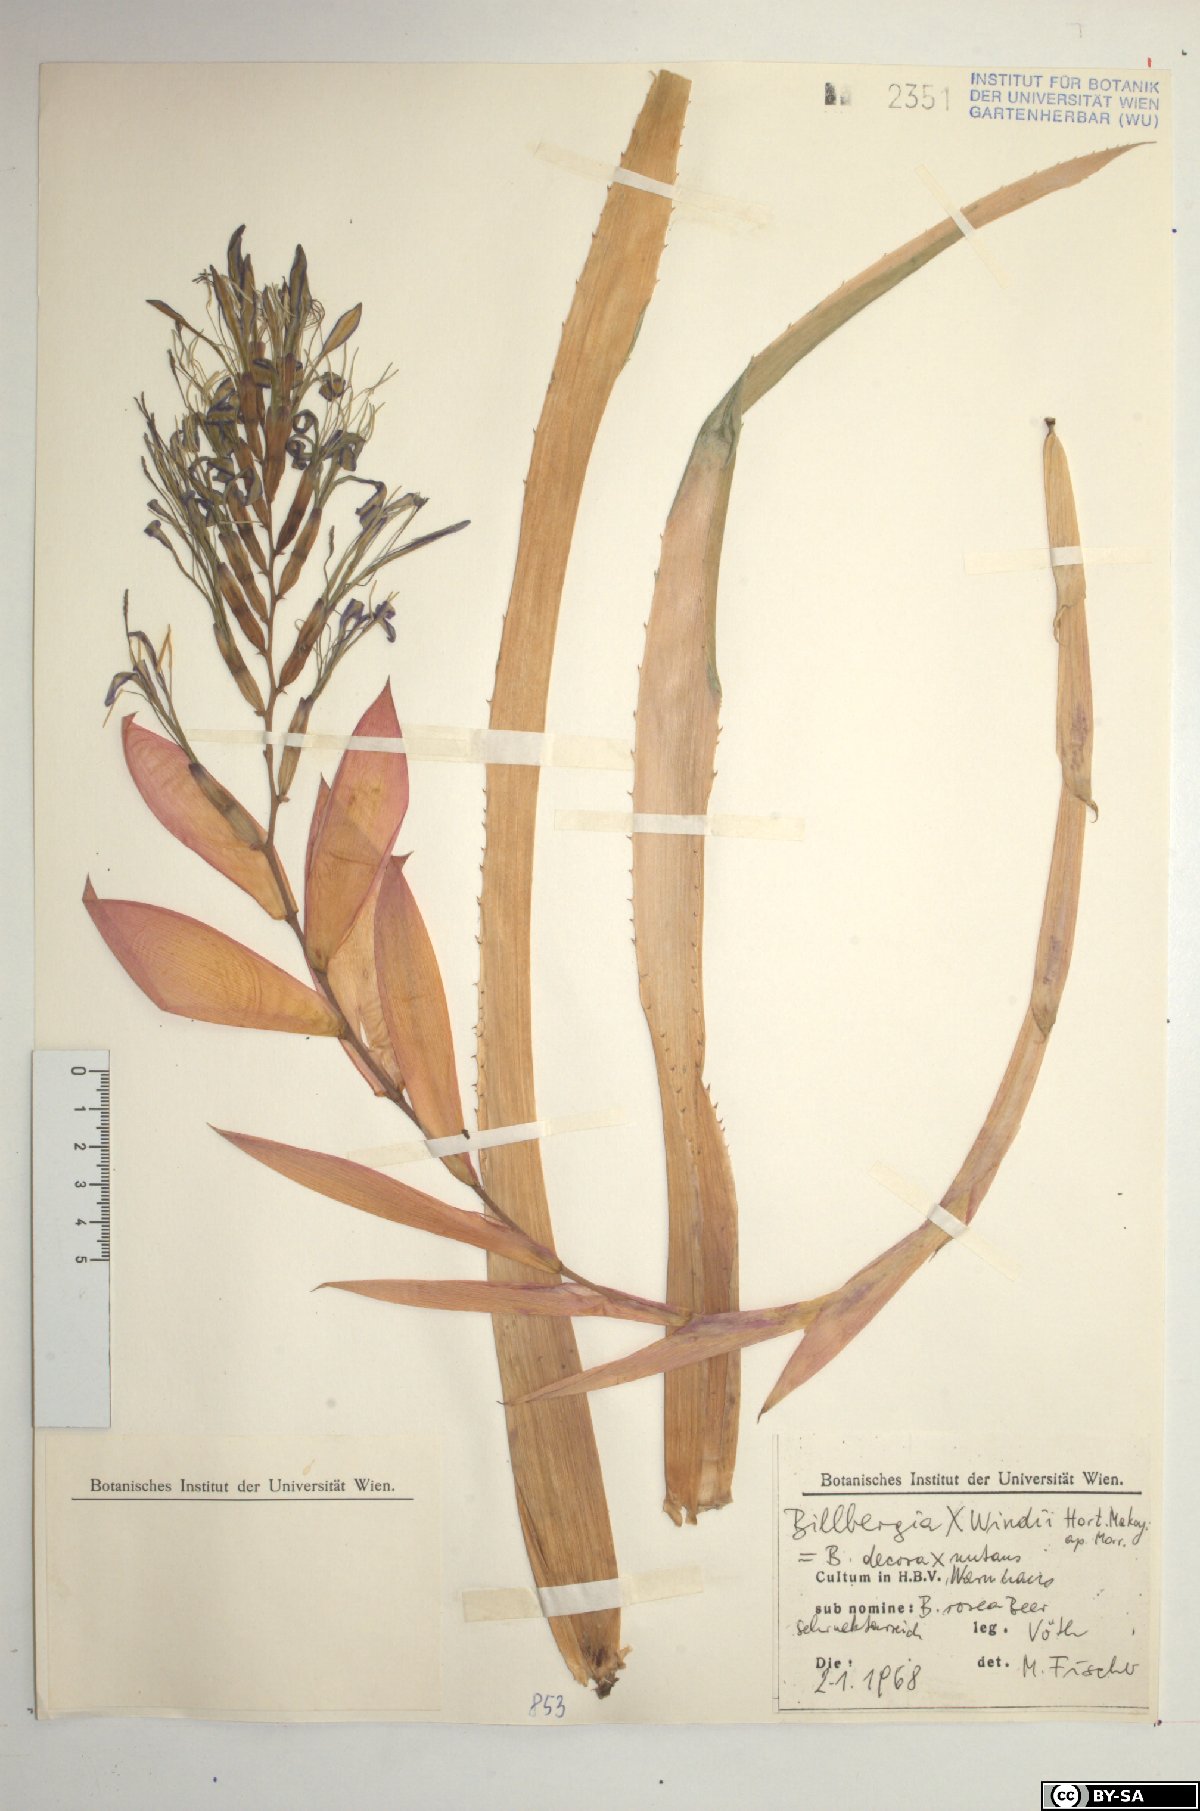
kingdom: Plantae
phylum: Tracheophyta
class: Liliopsida
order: Poales
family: Bromeliaceae
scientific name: Bromeliaceae
